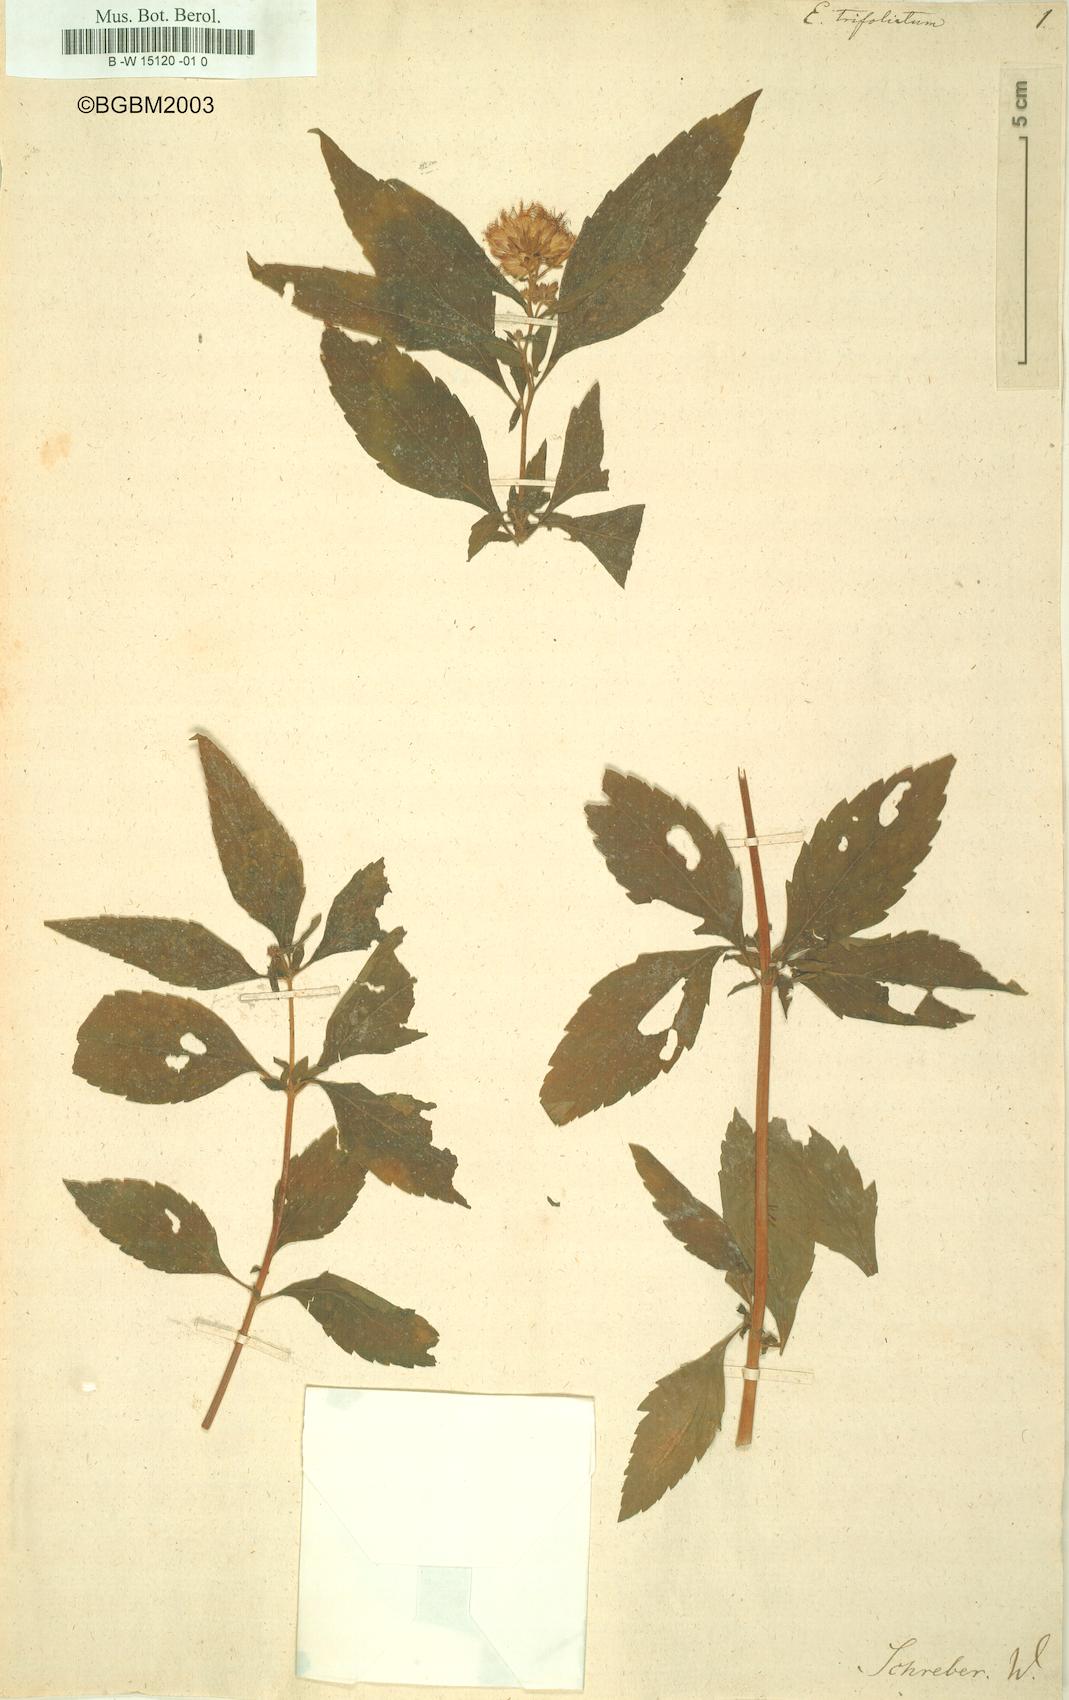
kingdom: Plantae
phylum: Tracheophyta
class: Magnoliopsida
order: Asterales
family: Asteraceae
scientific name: Asteraceae
